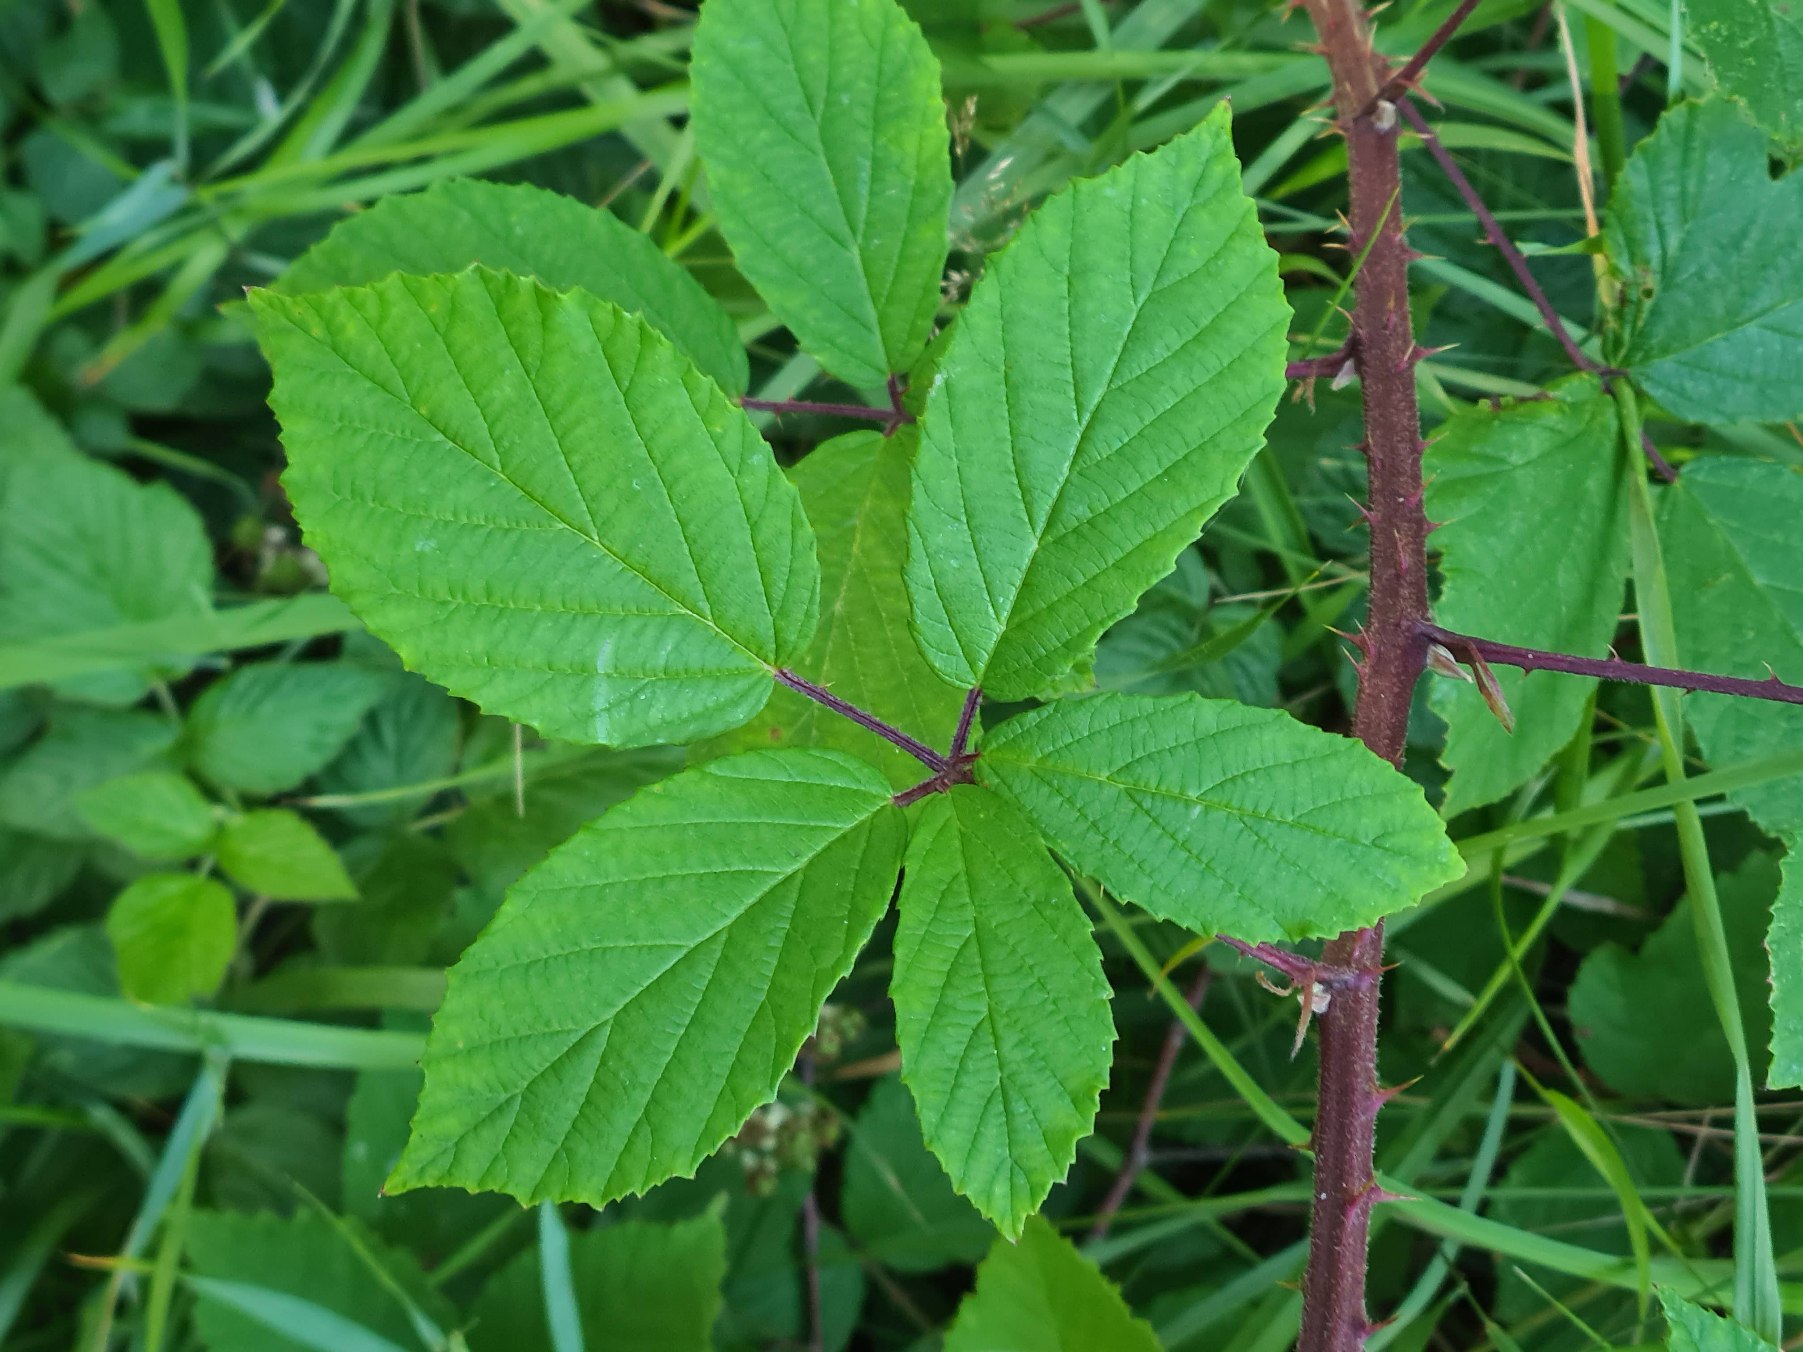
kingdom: Plantae
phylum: Tracheophyta
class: Magnoliopsida
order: Rosales
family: Rosaceae
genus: Rubus
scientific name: Rubus radula
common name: Rasperu brombær
